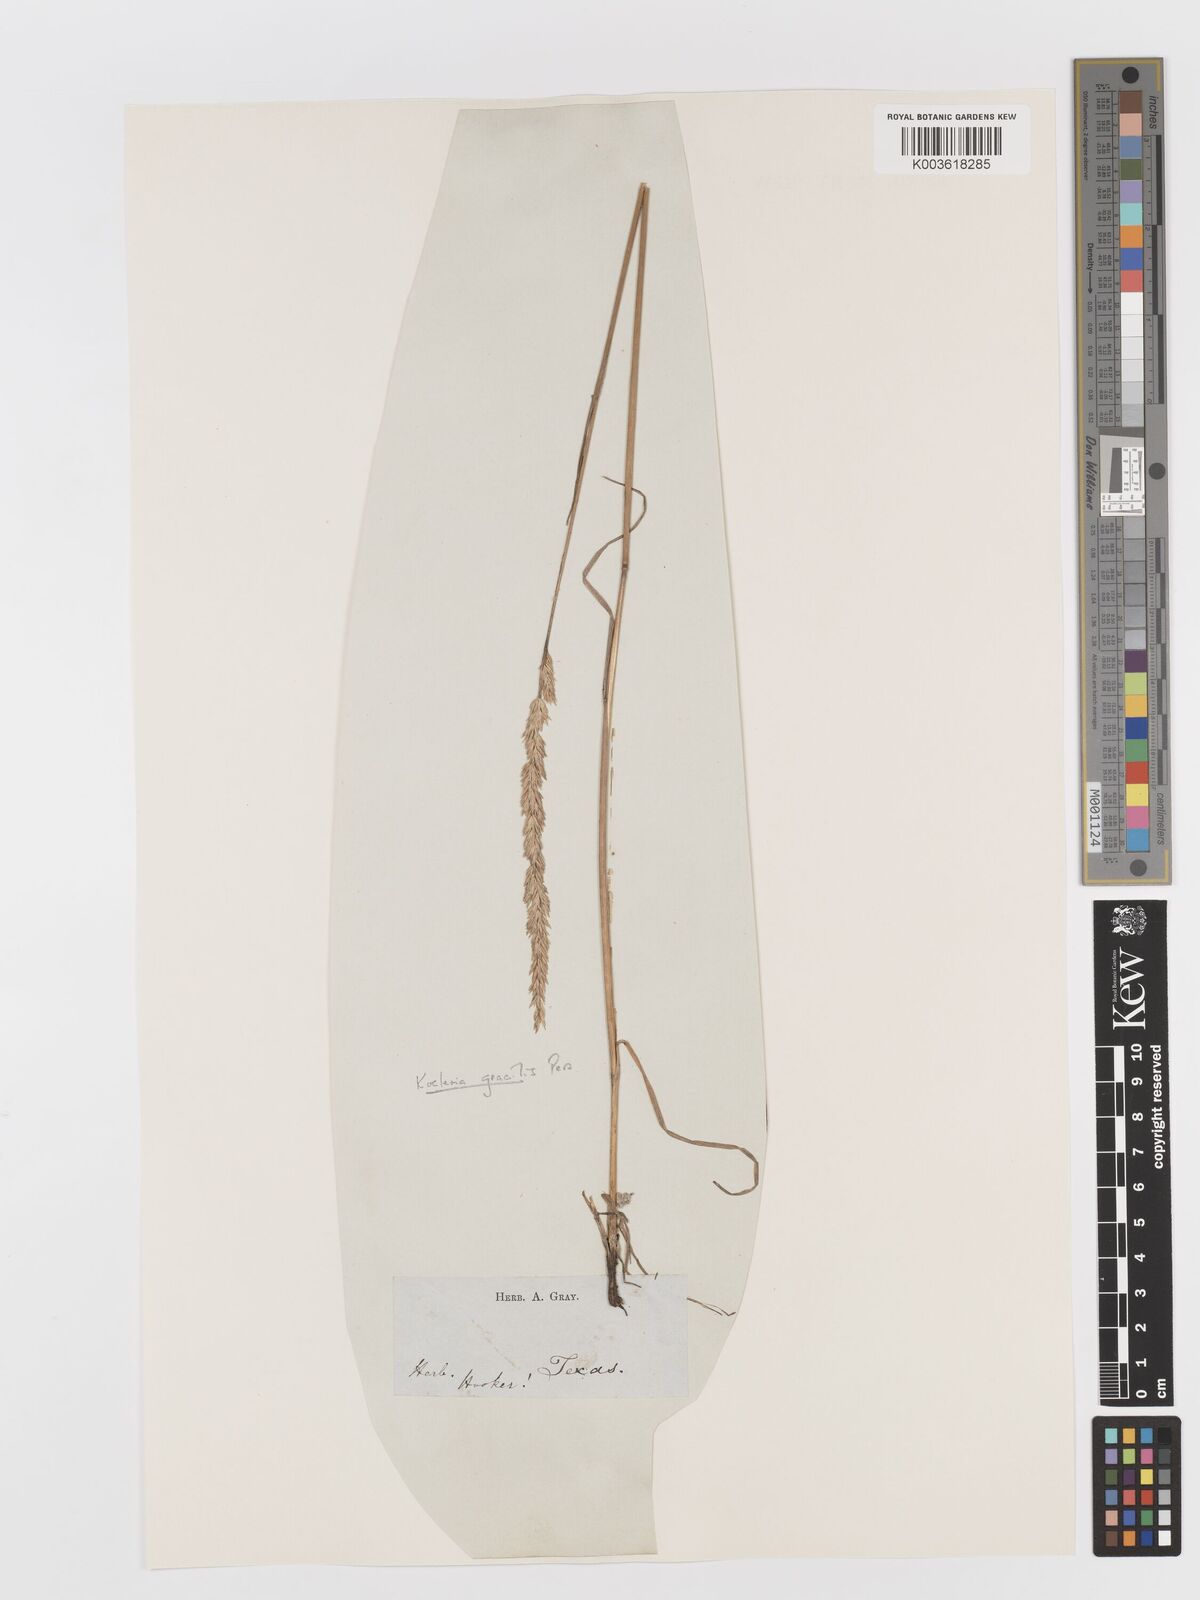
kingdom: Plantae
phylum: Tracheophyta
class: Liliopsida
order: Poales
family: Poaceae
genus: Koeleria
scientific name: Koeleria macrantha
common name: Crested hair-grass
